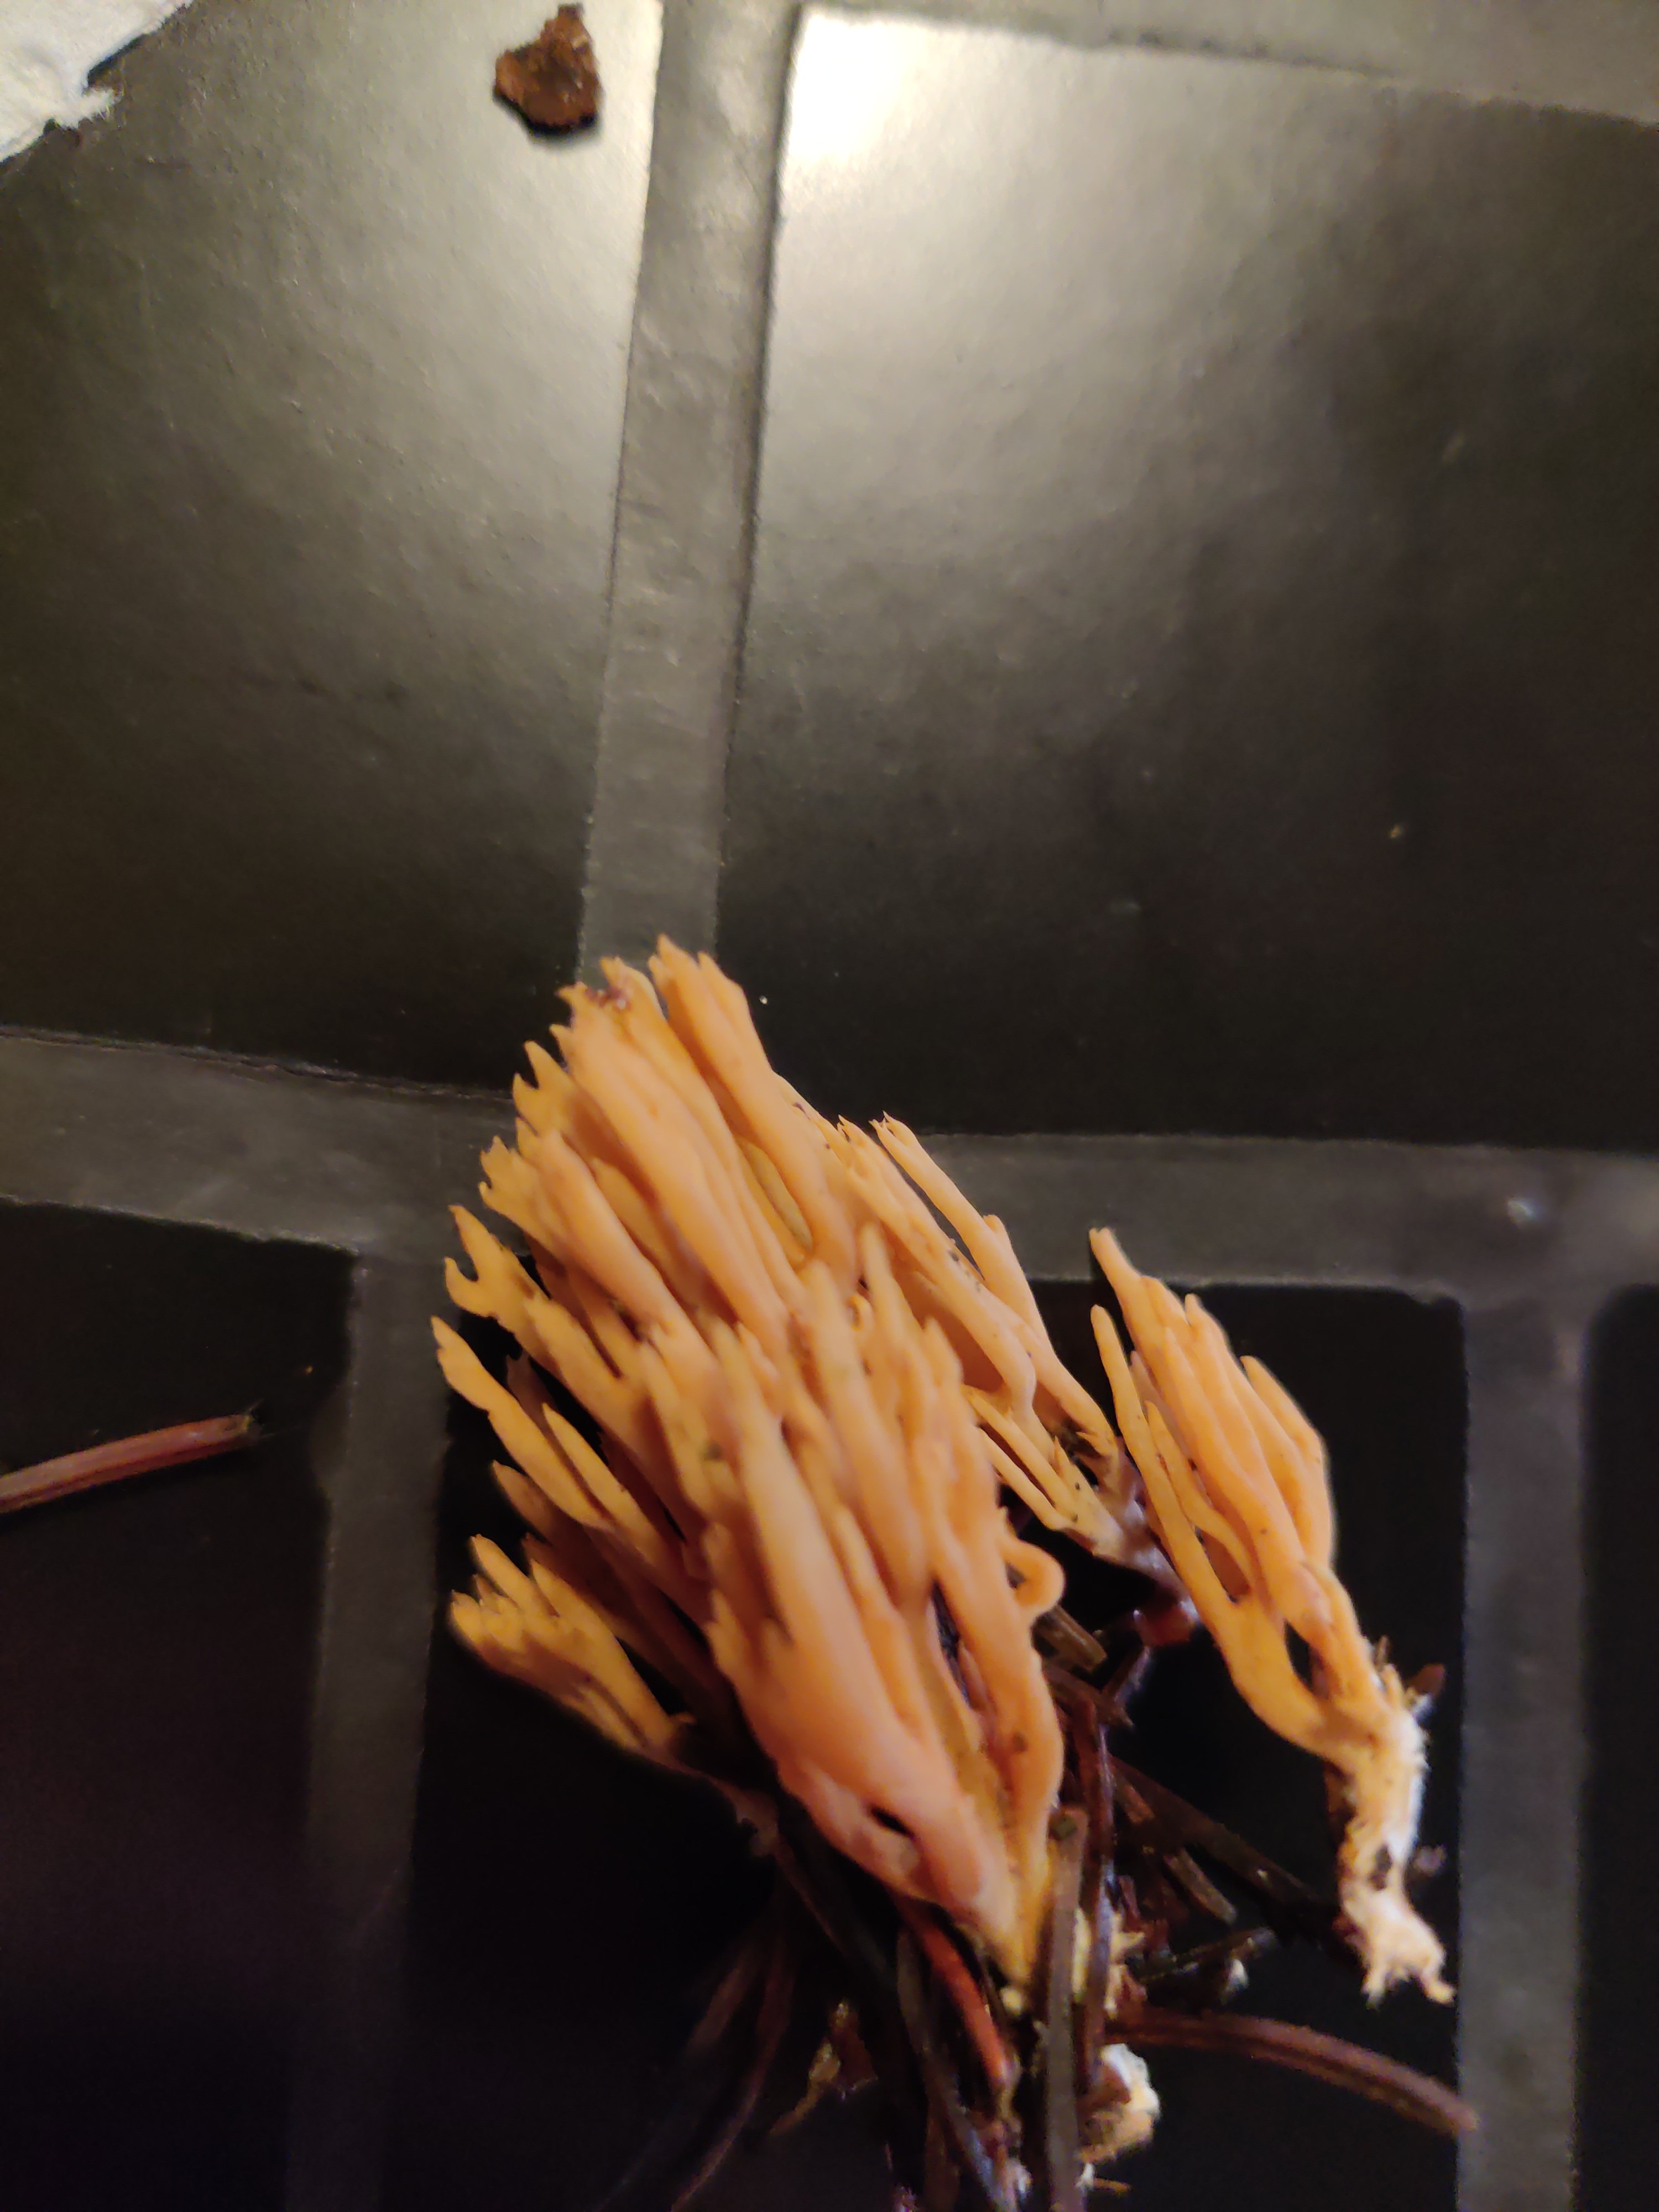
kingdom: Fungi
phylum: Basidiomycota
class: Agaricomycetes
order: Gomphales
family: Gomphaceae
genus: Phaeoclavulina
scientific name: Phaeoclavulina eumorpha
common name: gran-koralsvamp
